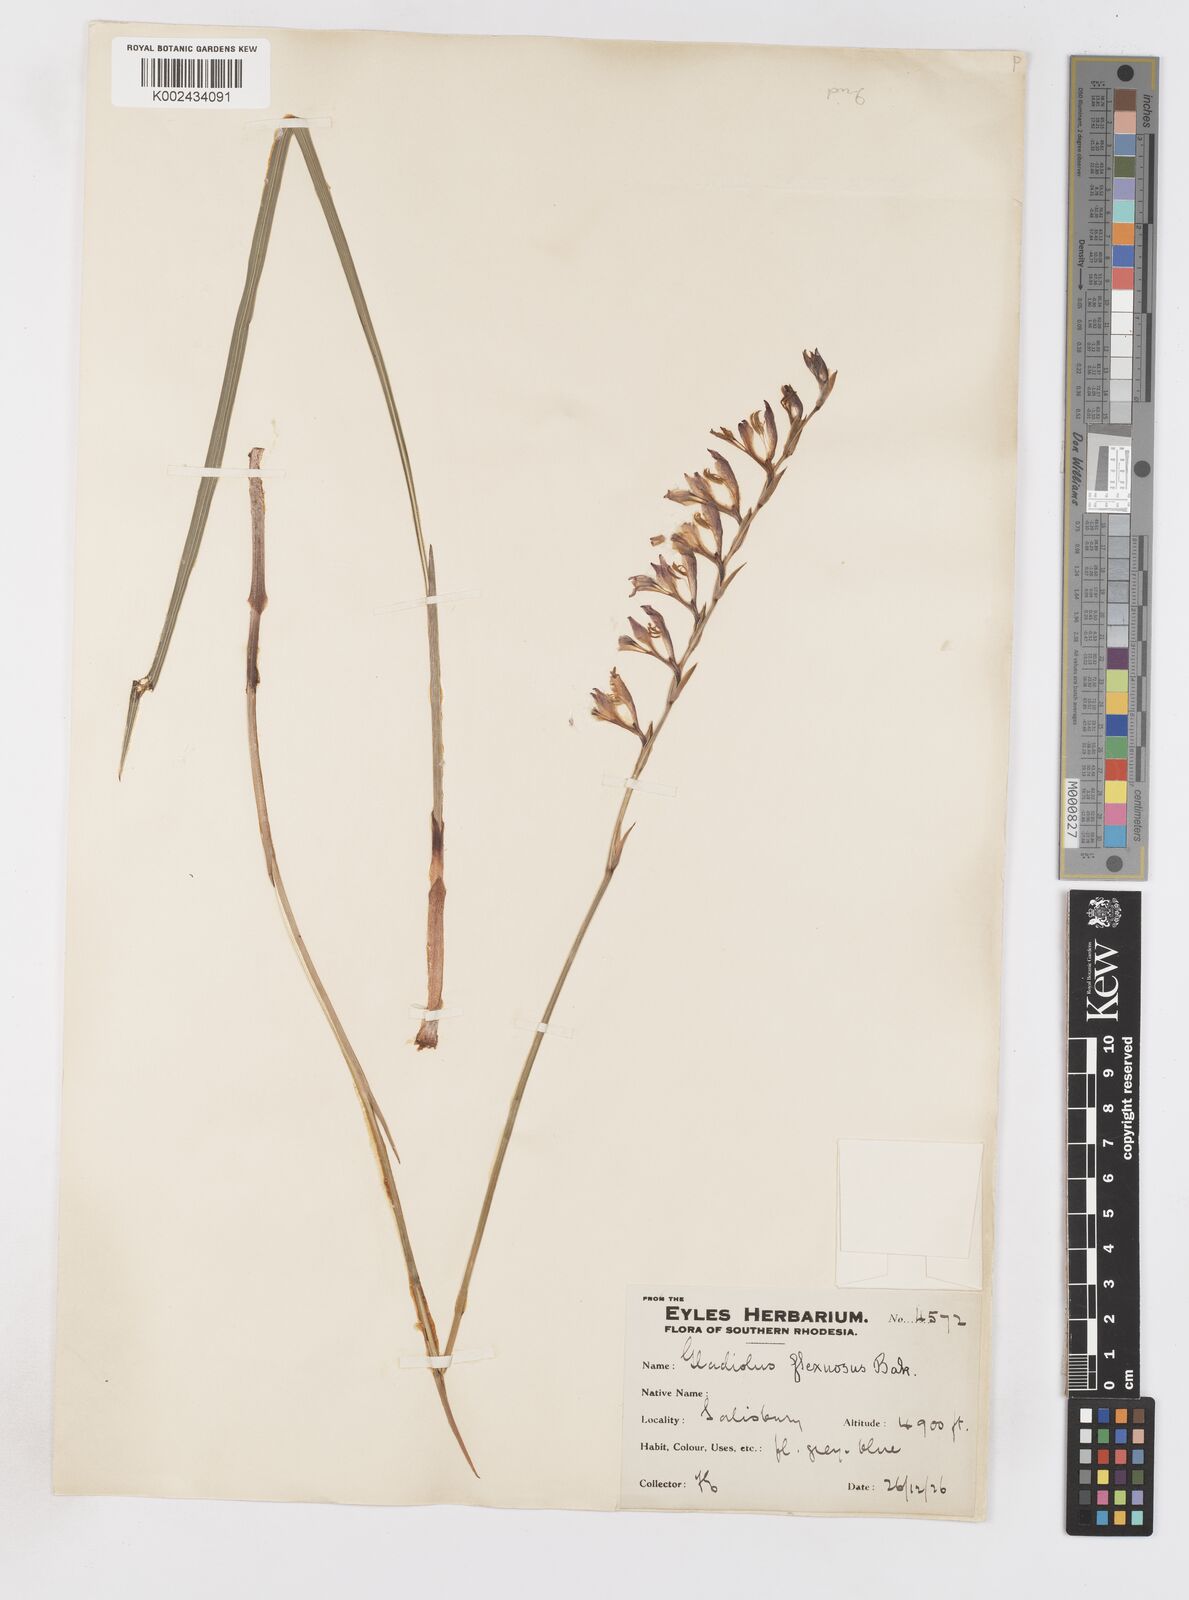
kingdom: Plantae
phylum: Tracheophyta
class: Liliopsida
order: Asparagales
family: Iridaceae
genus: Gladiolus
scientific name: Gladiolus atropurpureus
